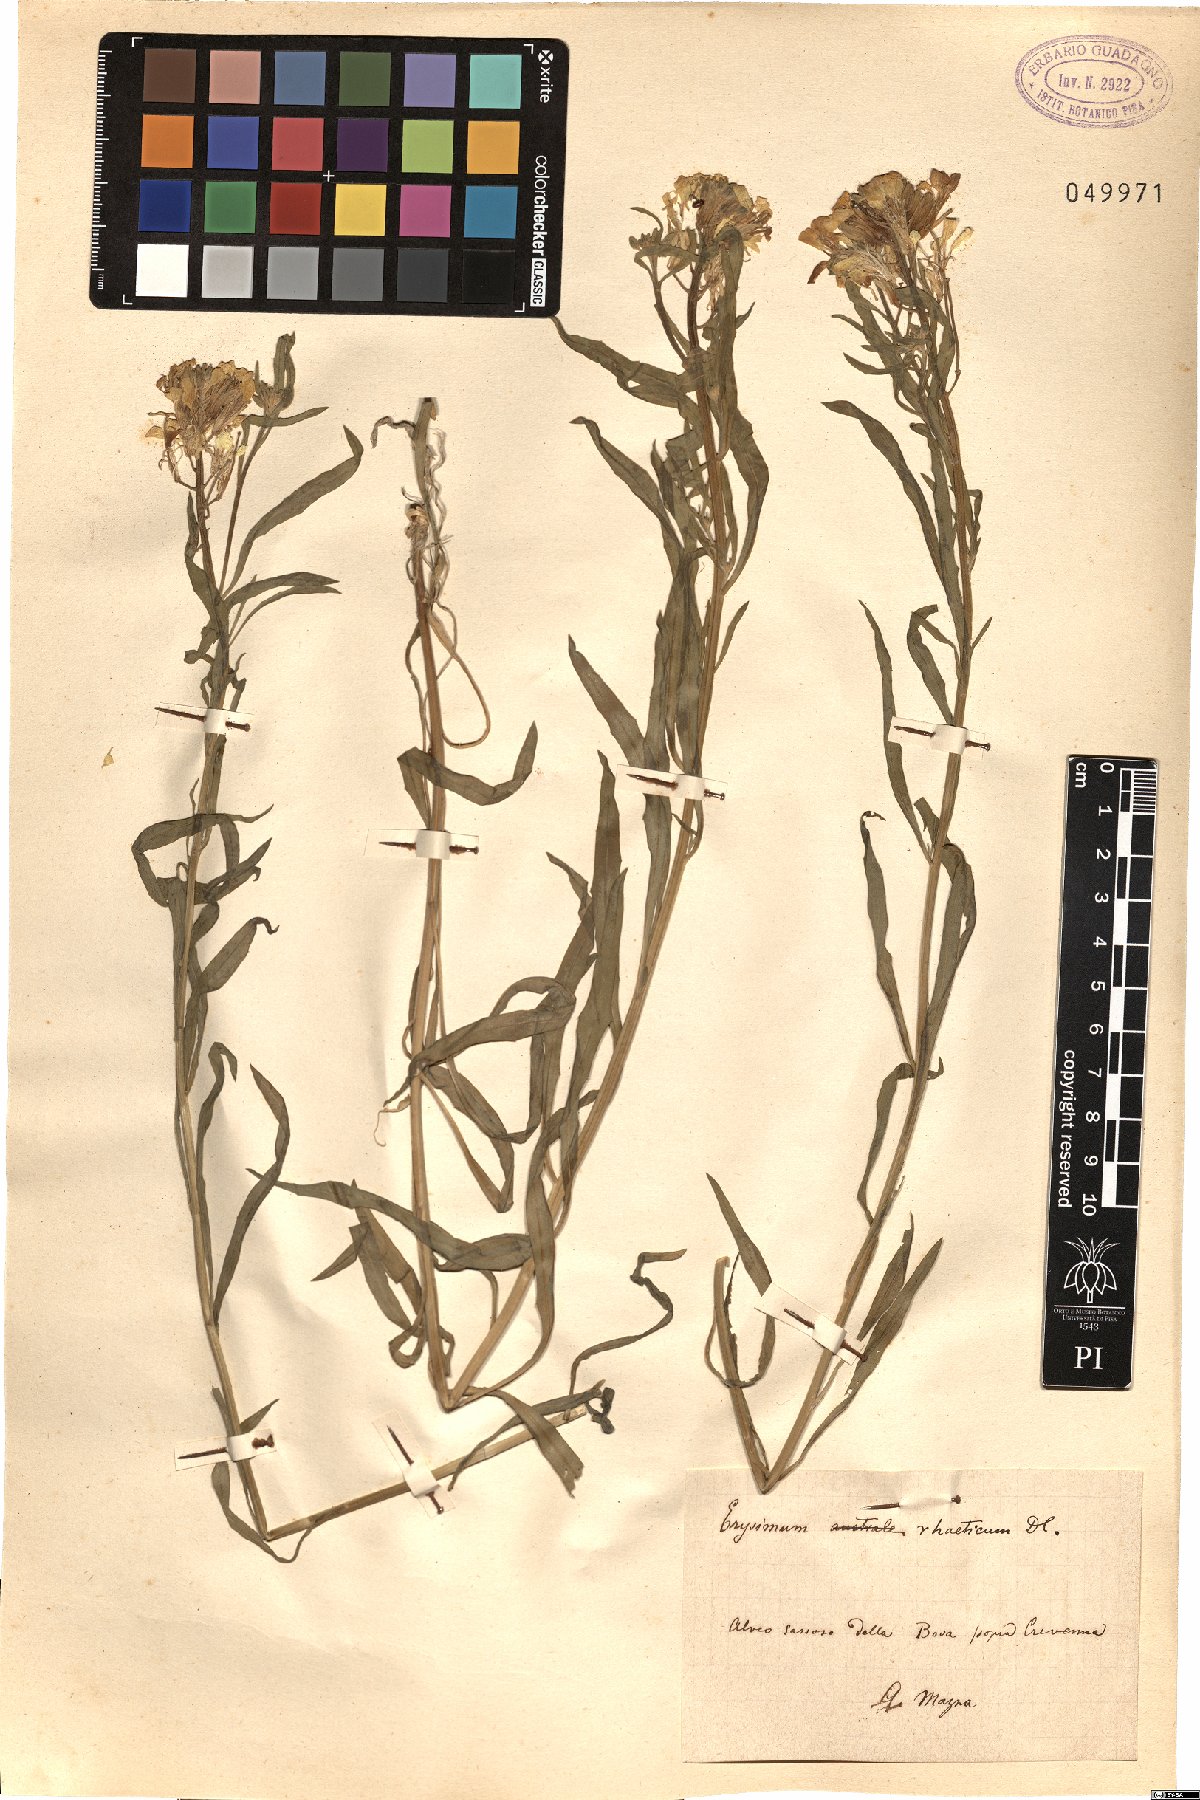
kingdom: Plantae
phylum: Tracheophyta
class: Magnoliopsida
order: Brassicales
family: Brassicaceae
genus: Erysimum
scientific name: Erysimum rhaeticum
